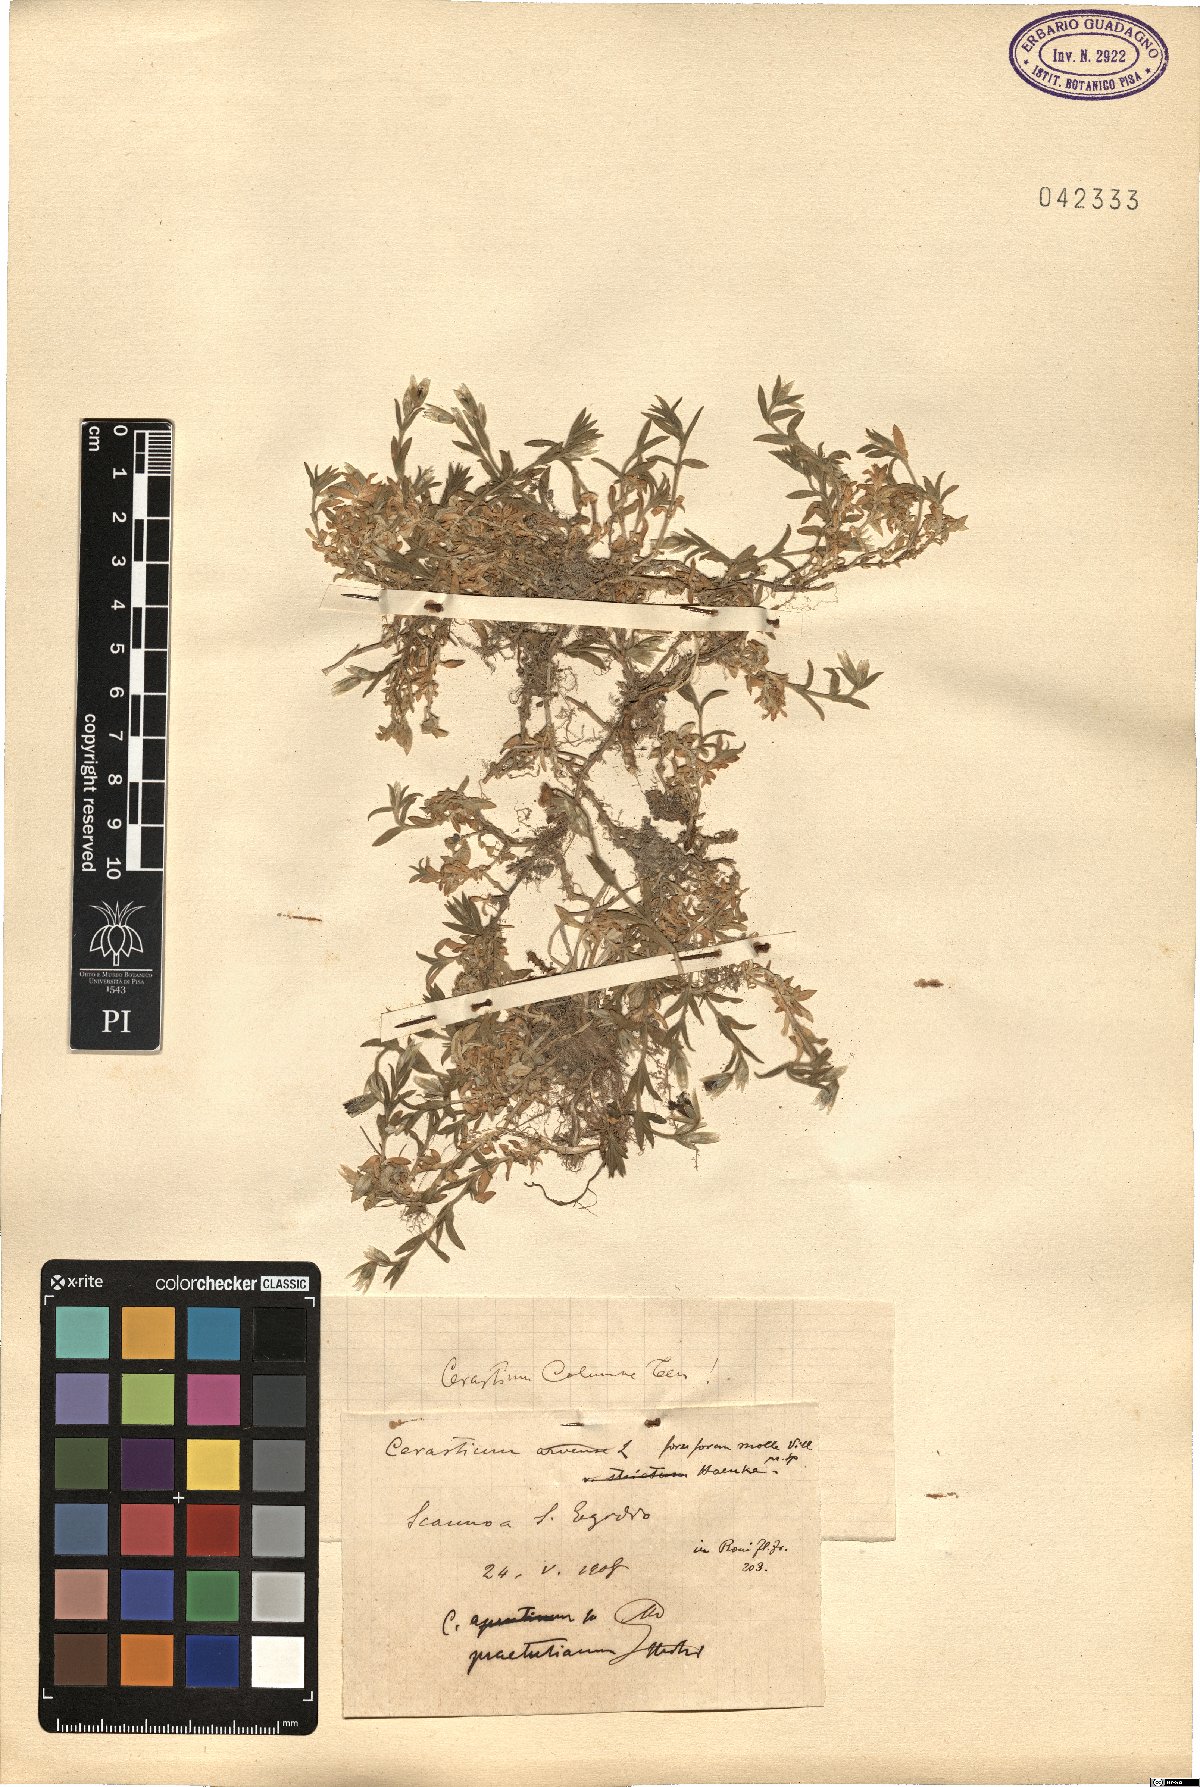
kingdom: Plantae
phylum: Tracheophyta
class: Magnoliopsida
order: Caryophyllales
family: Caryophyllaceae
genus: Cerastium
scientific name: Cerastium tomentosum
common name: Snow-in-summer
